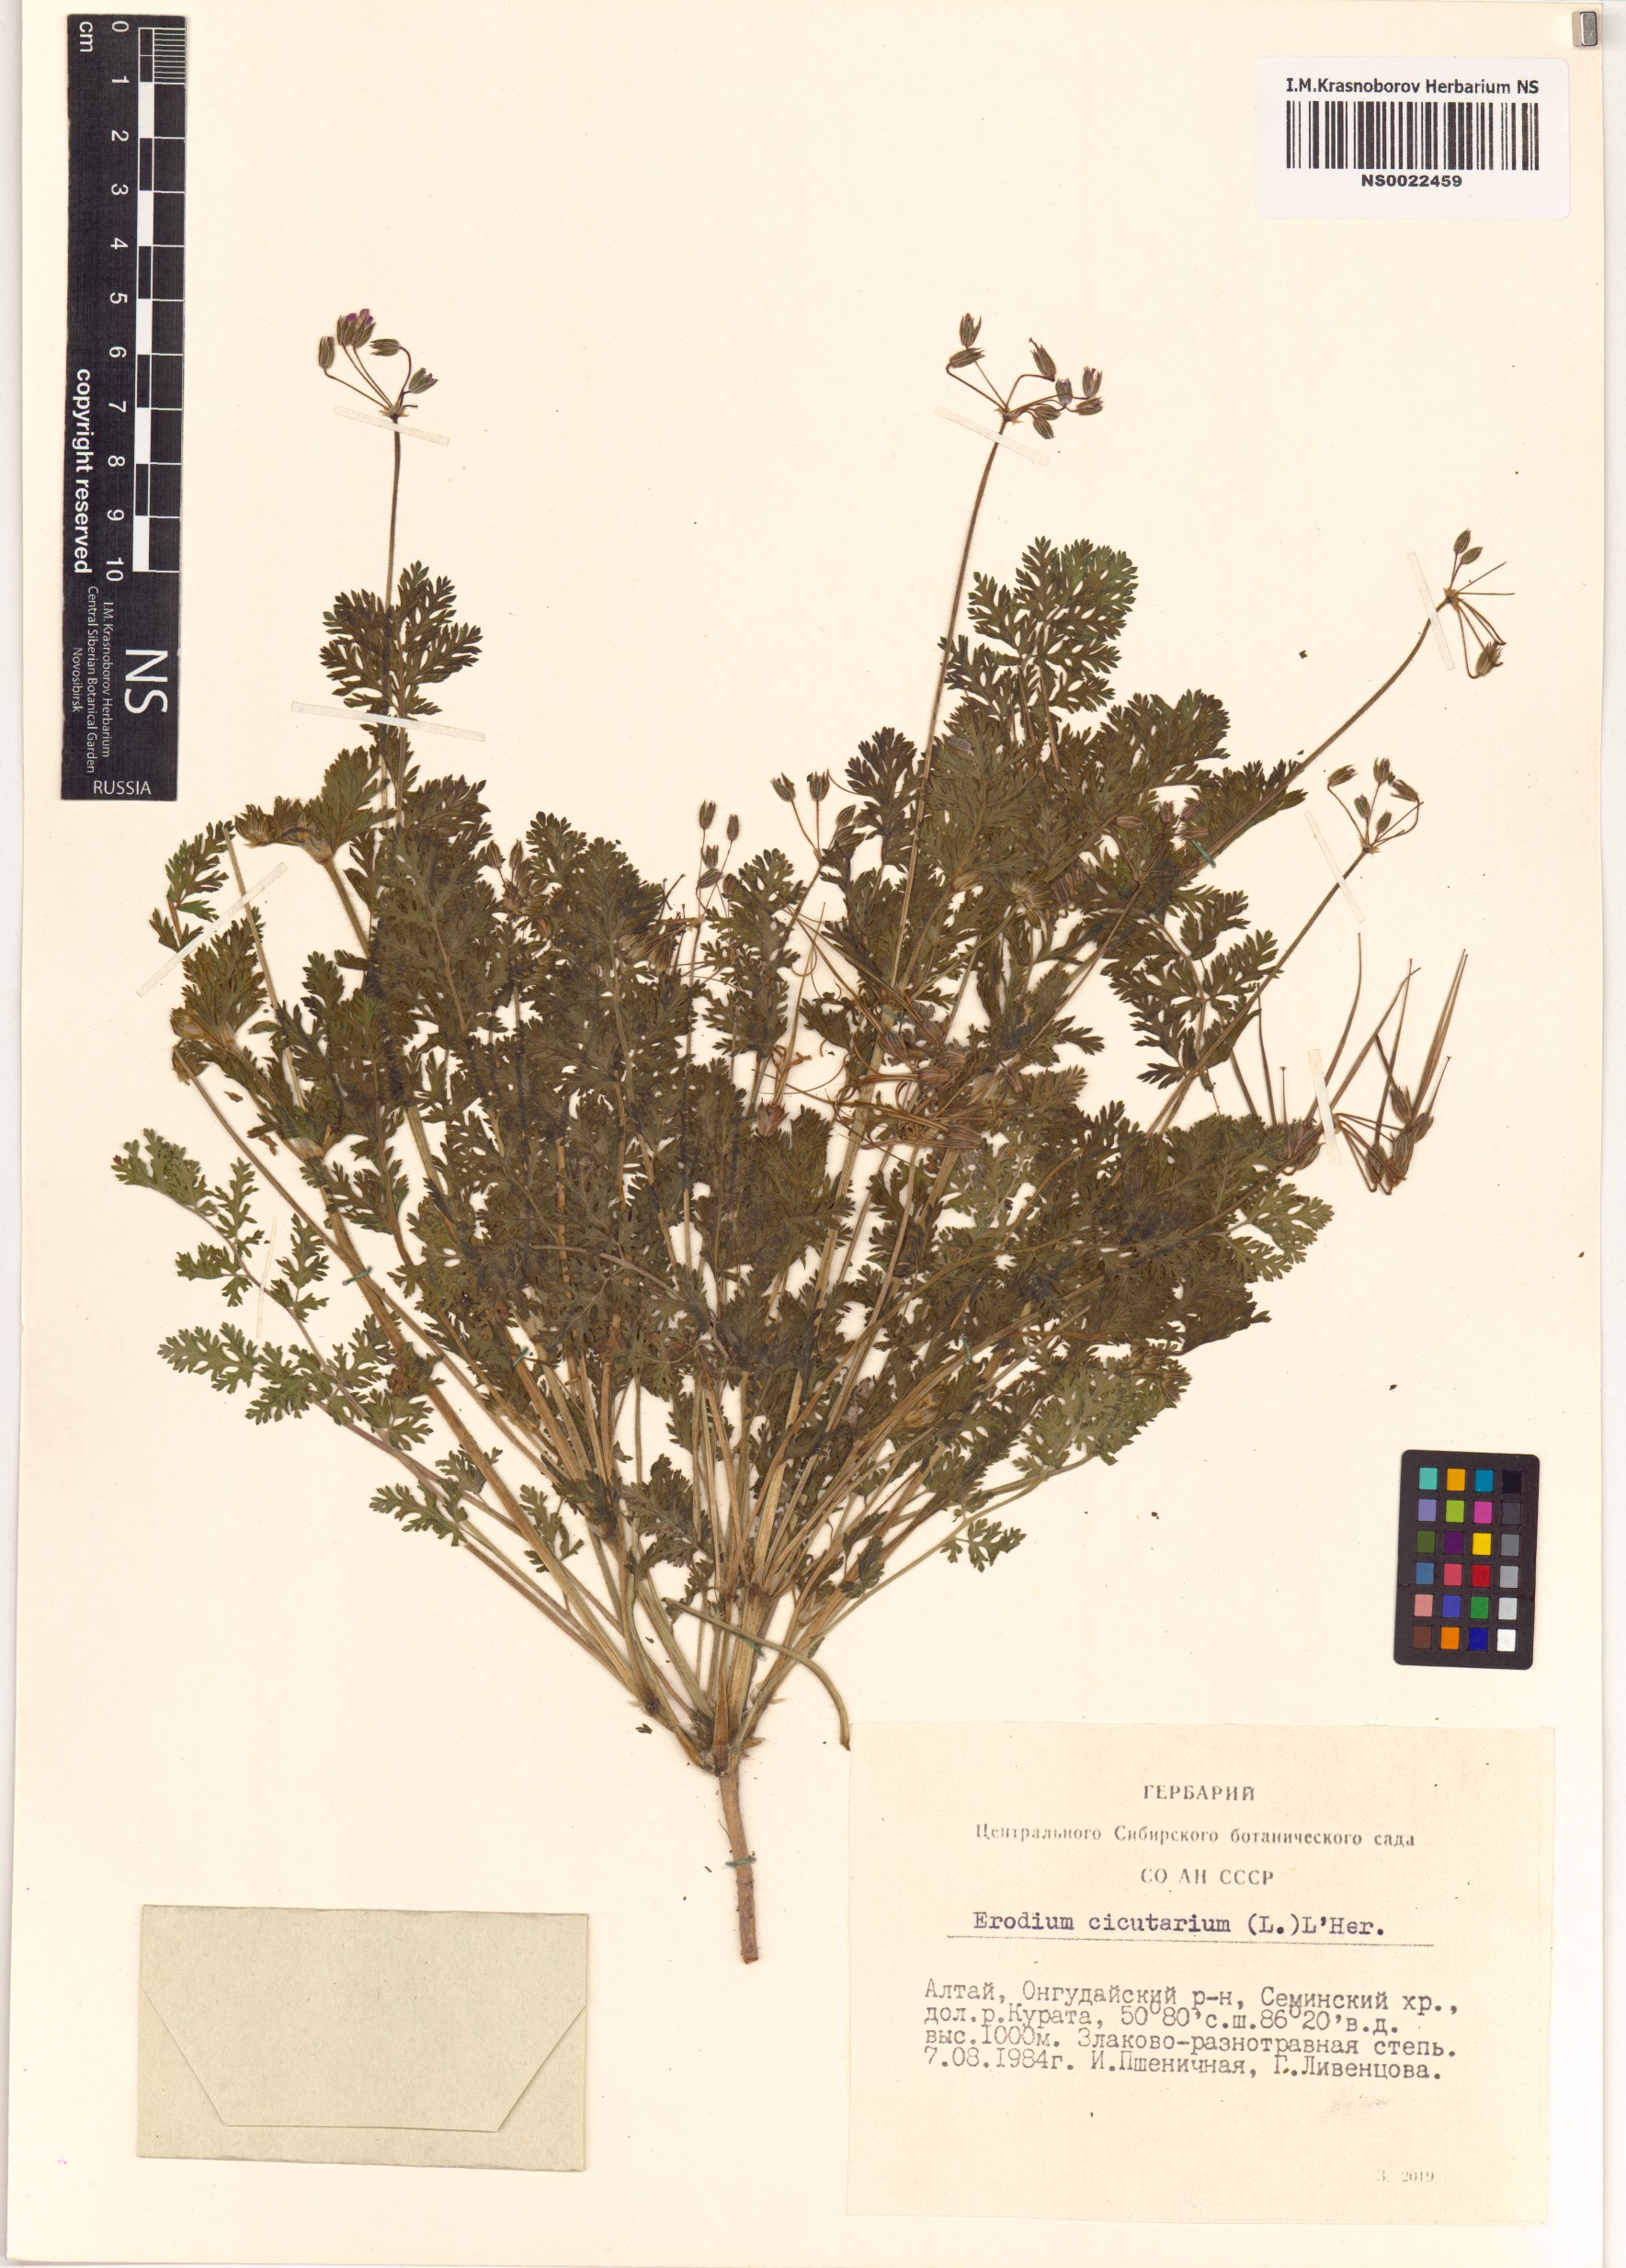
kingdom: Plantae
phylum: Tracheophyta
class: Magnoliopsida
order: Geraniales
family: Geraniaceae
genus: Erodium
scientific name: Erodium cicutarium
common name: Common stork's-bill
